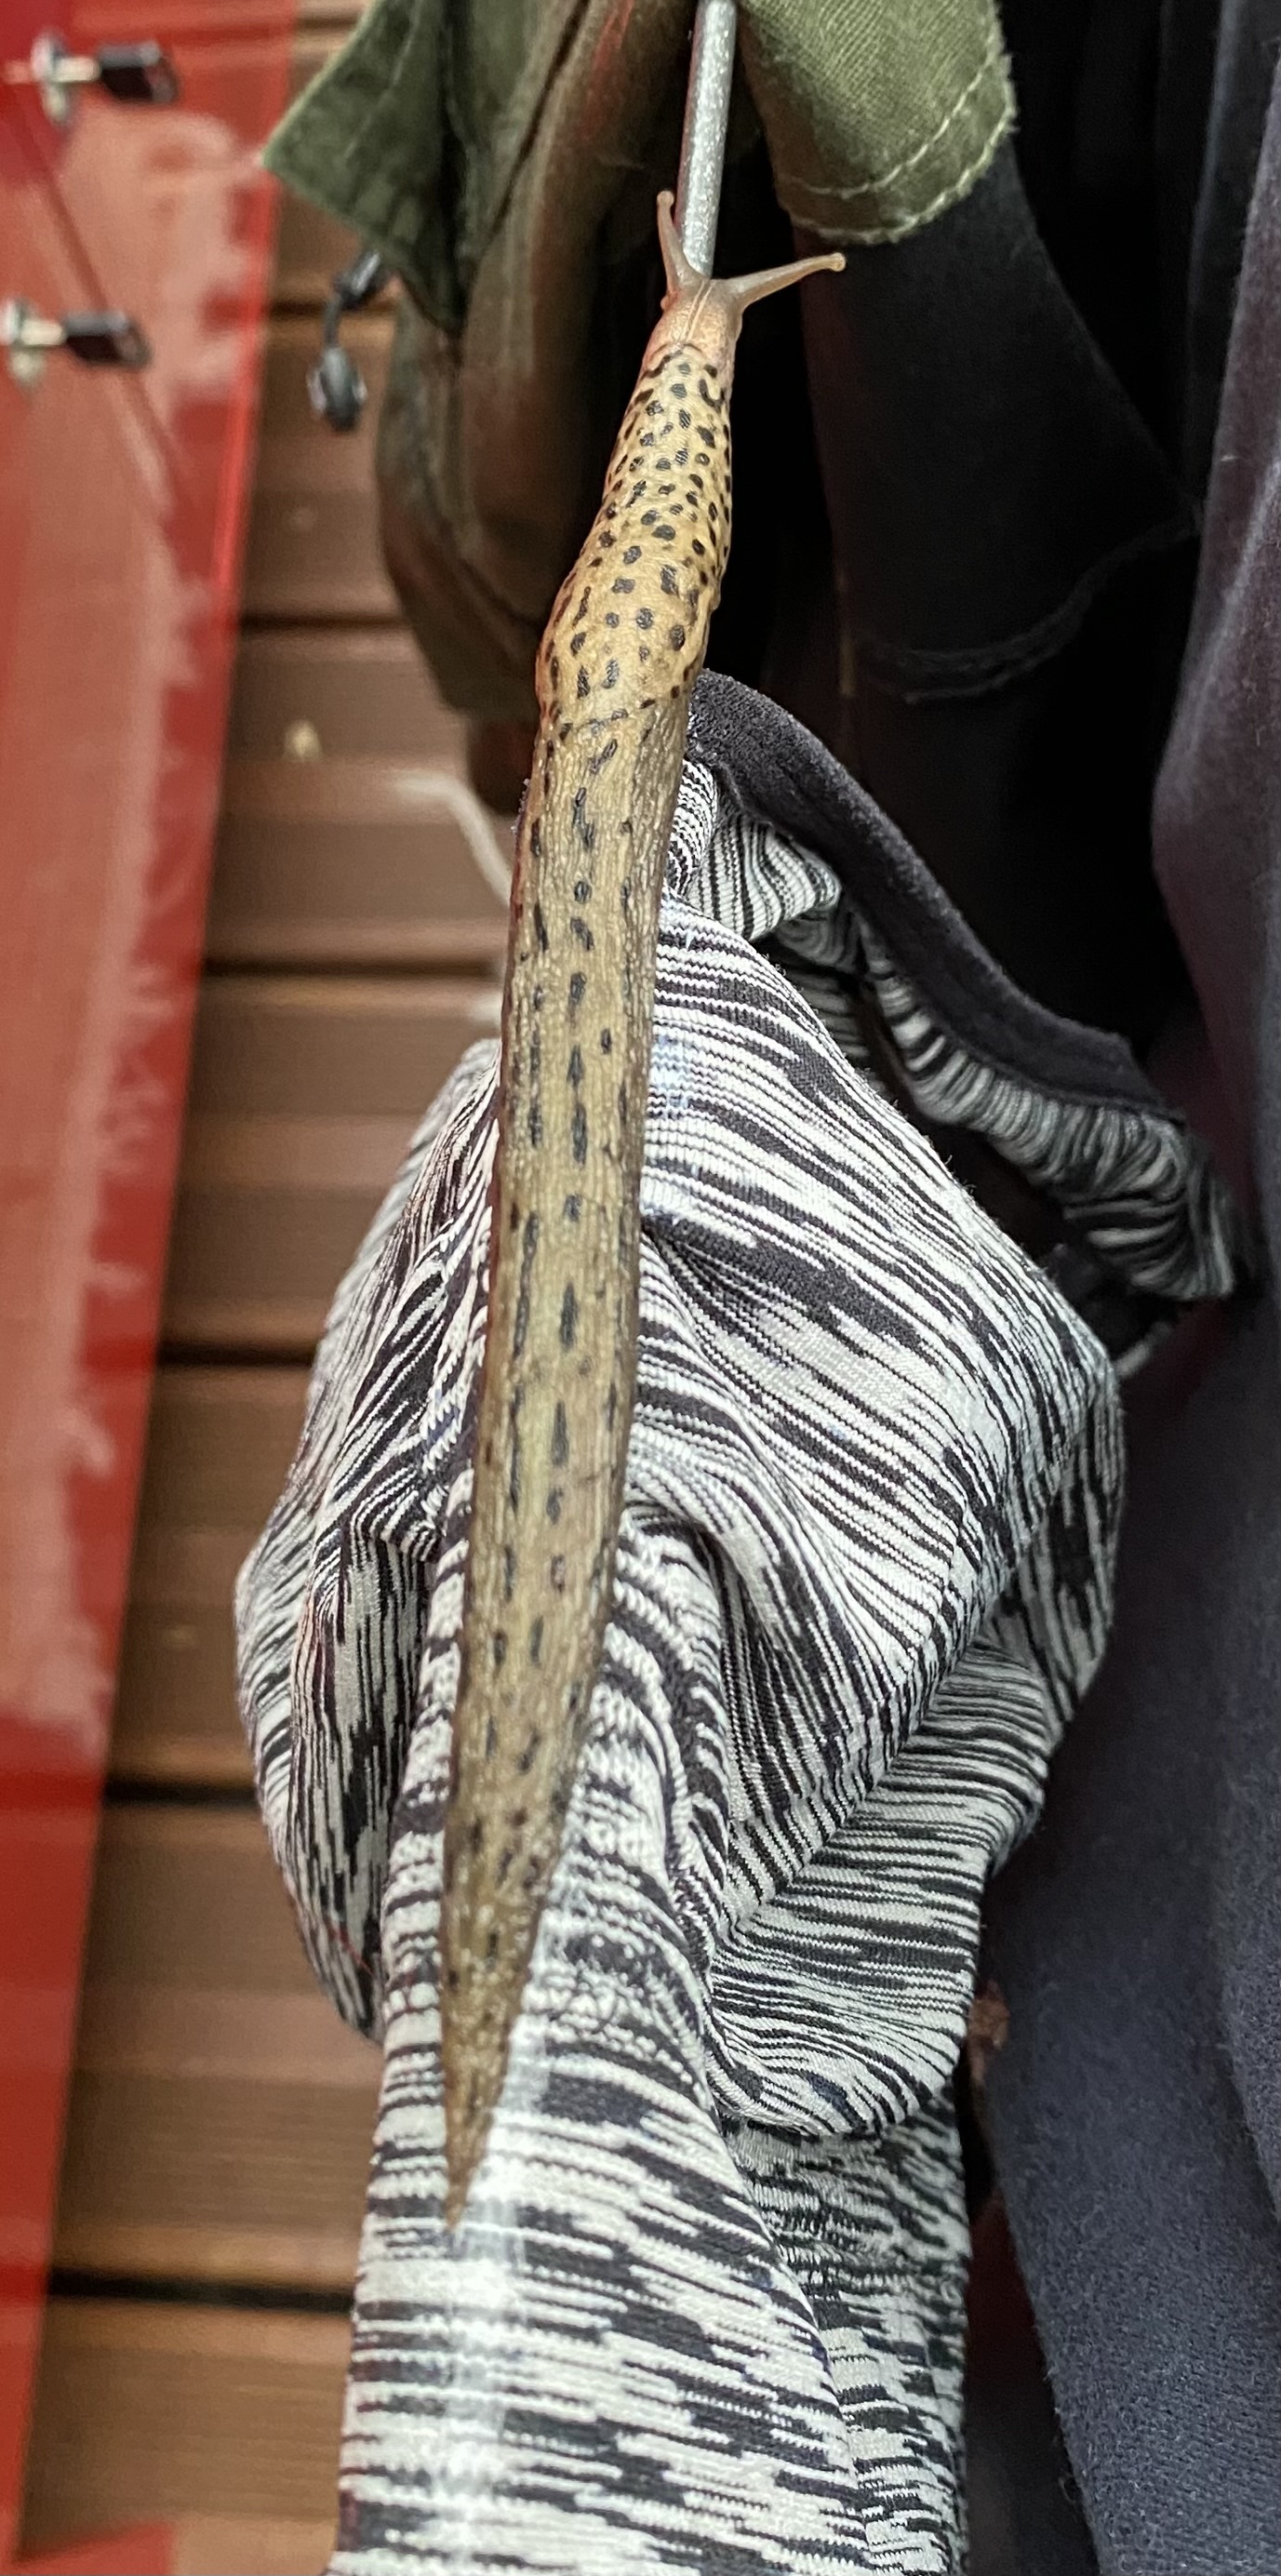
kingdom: Animalia
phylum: Mollusca
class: Gastropoda
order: Stylommatophora
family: Limacidae
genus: Limax
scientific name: Limax maximus
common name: Great grey slug
